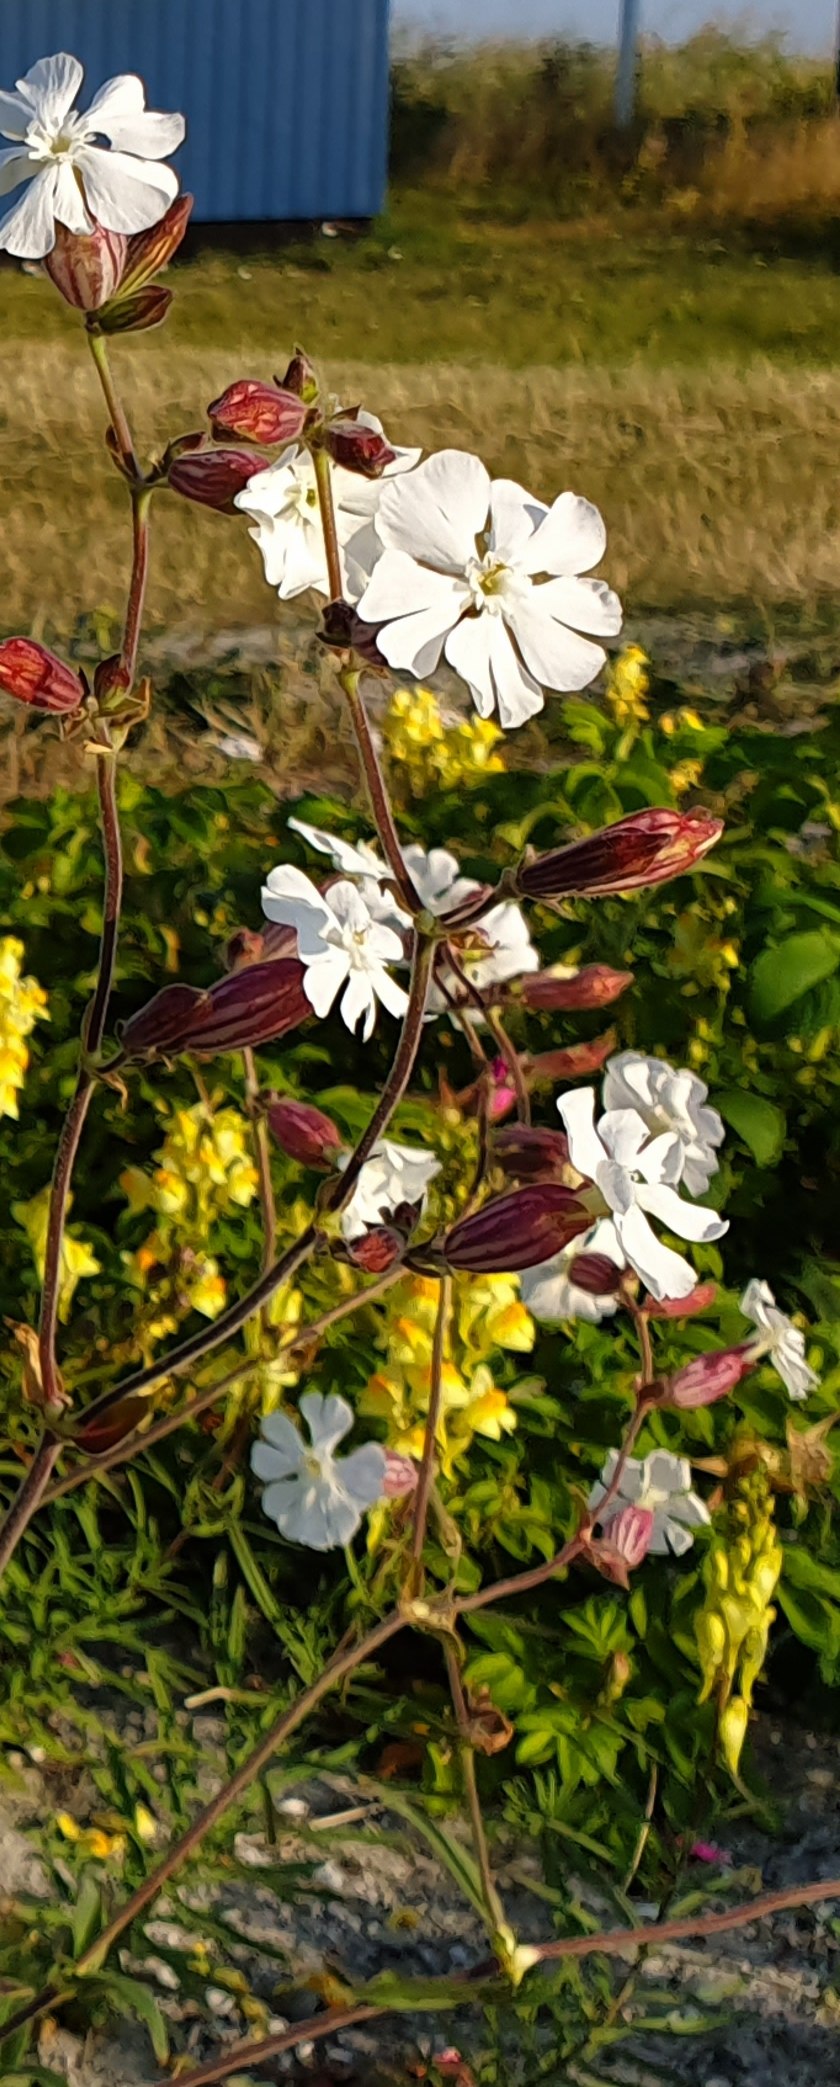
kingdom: Plantae
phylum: Tracheophyta
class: Magnoliopsida
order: Caryophyllales
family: Caryophyllaceae
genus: Silene
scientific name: Silene latifolia
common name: Aftenpragtstjerne
